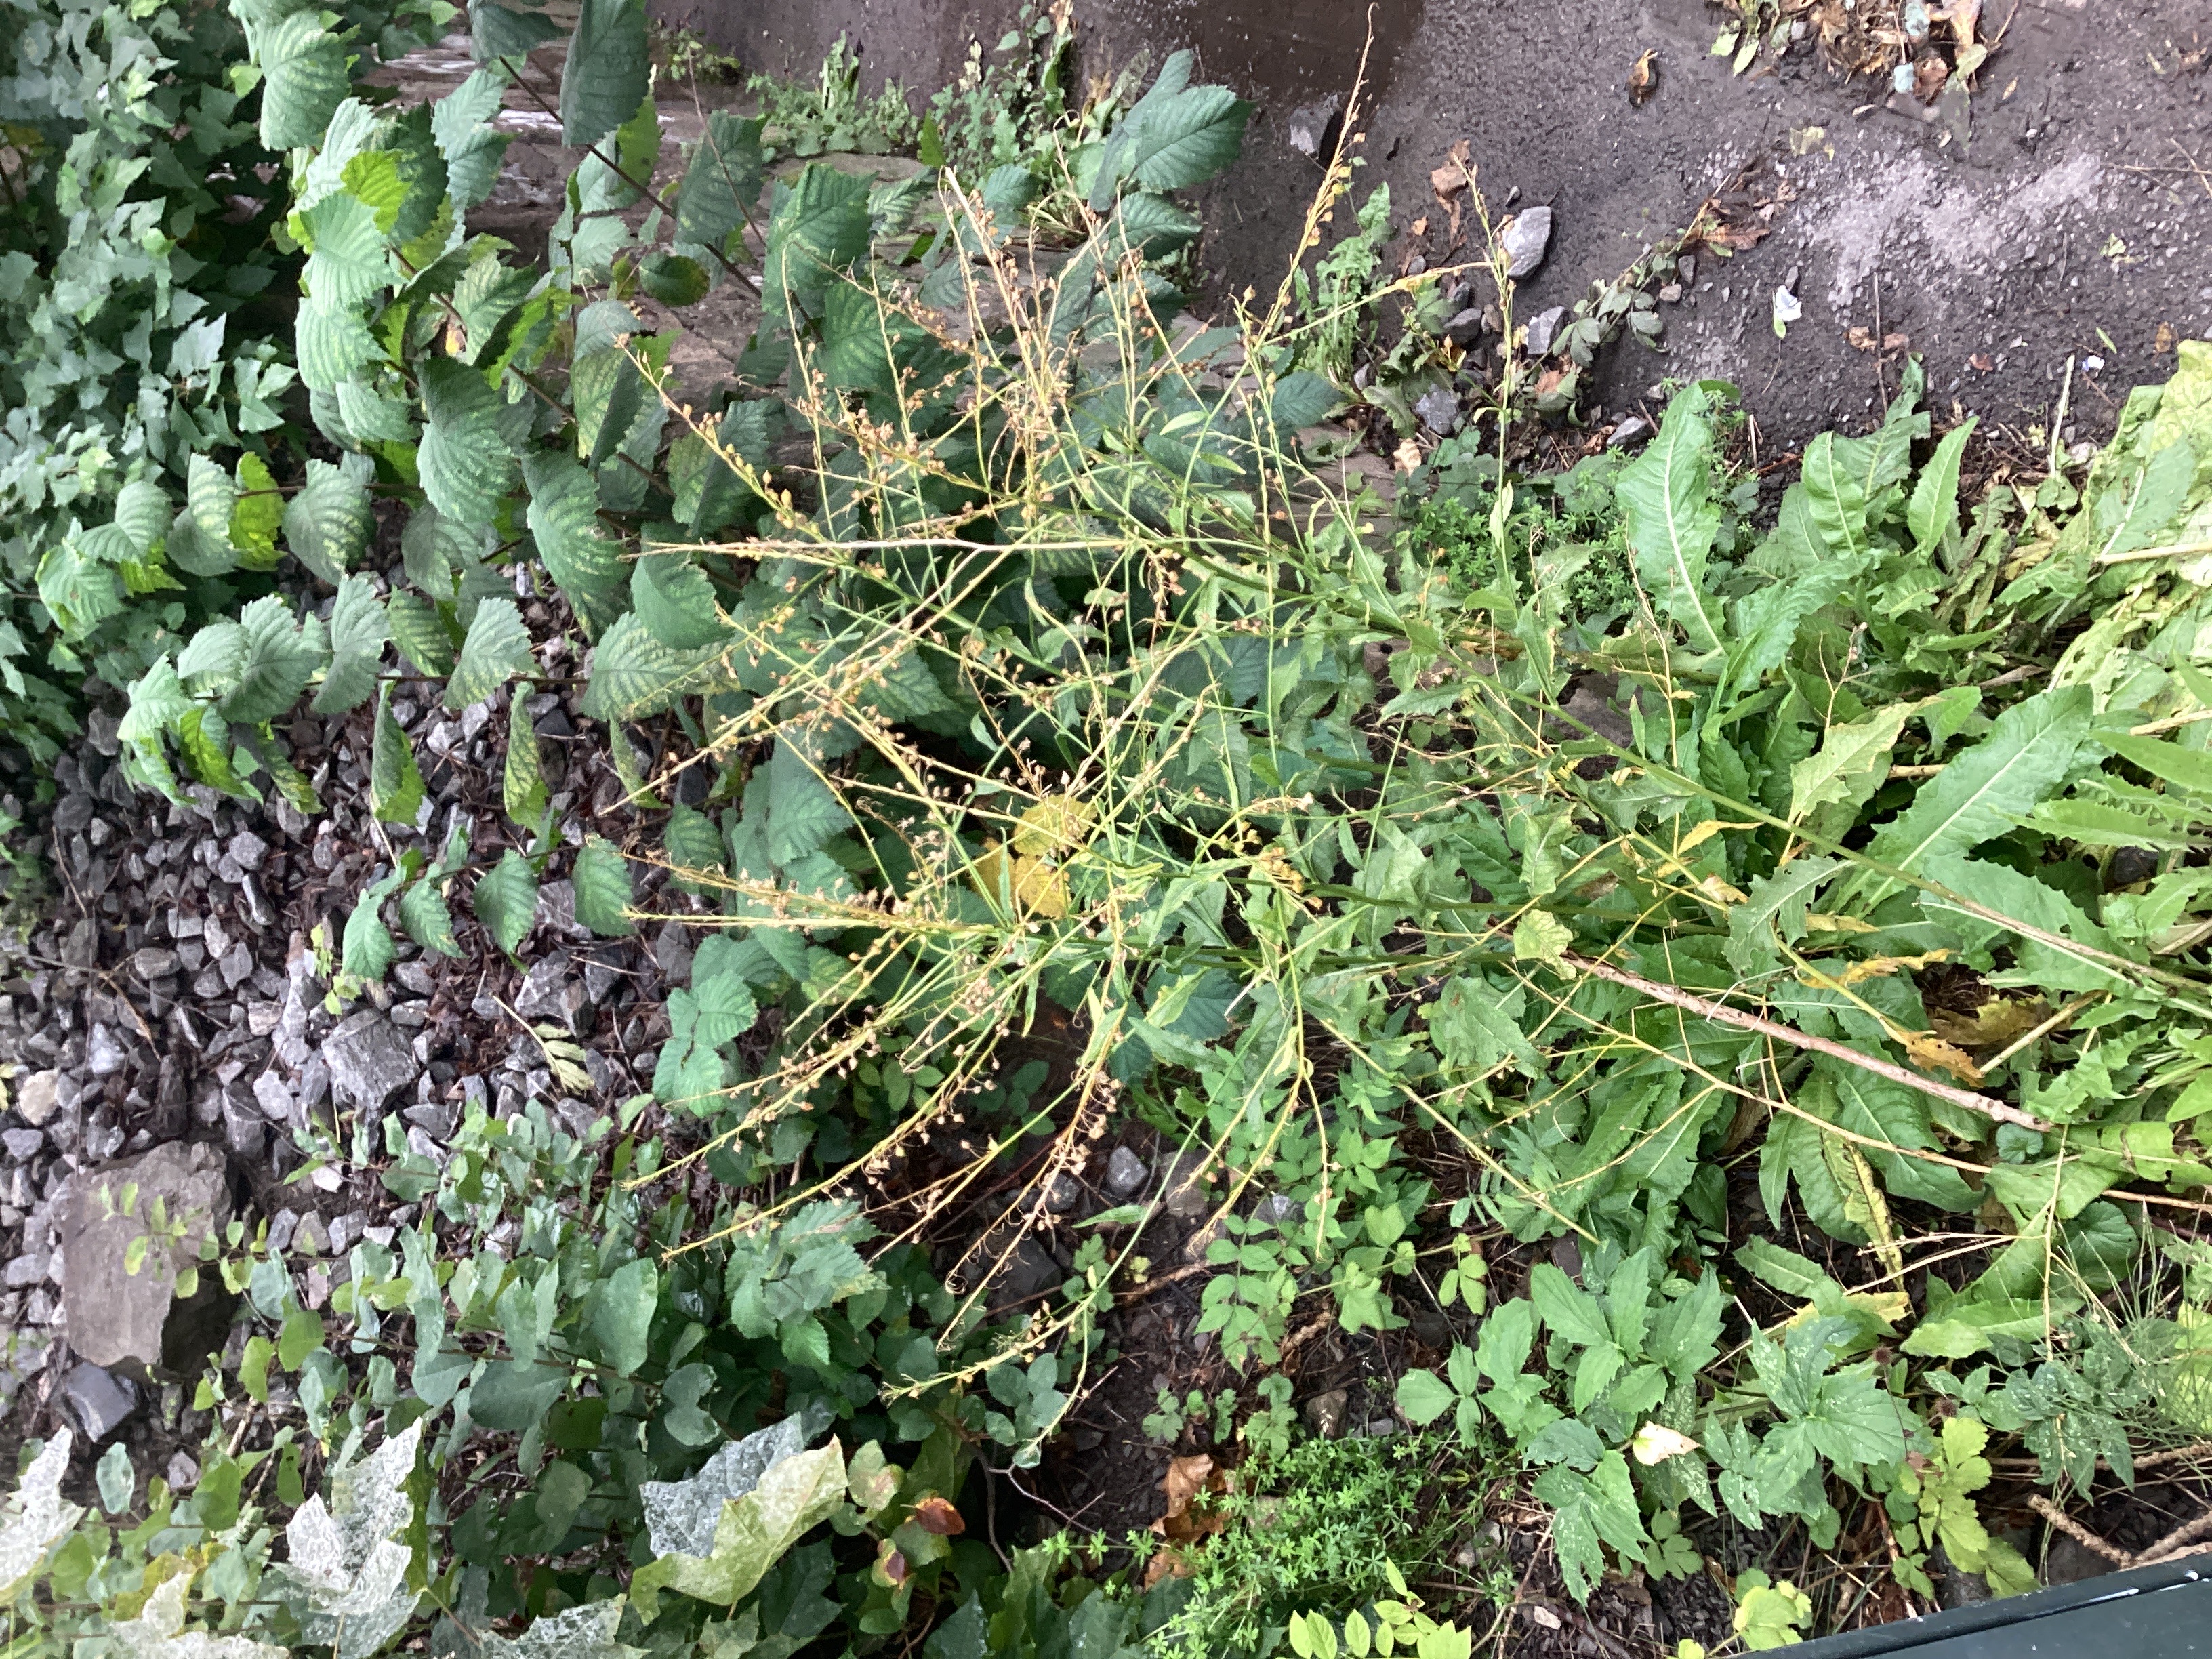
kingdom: Plantae
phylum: Tracheophyta
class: Magnoliopsida
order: Brassicales
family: Brassicaceae
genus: Bunias
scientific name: Bunias orientalis
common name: russekål
